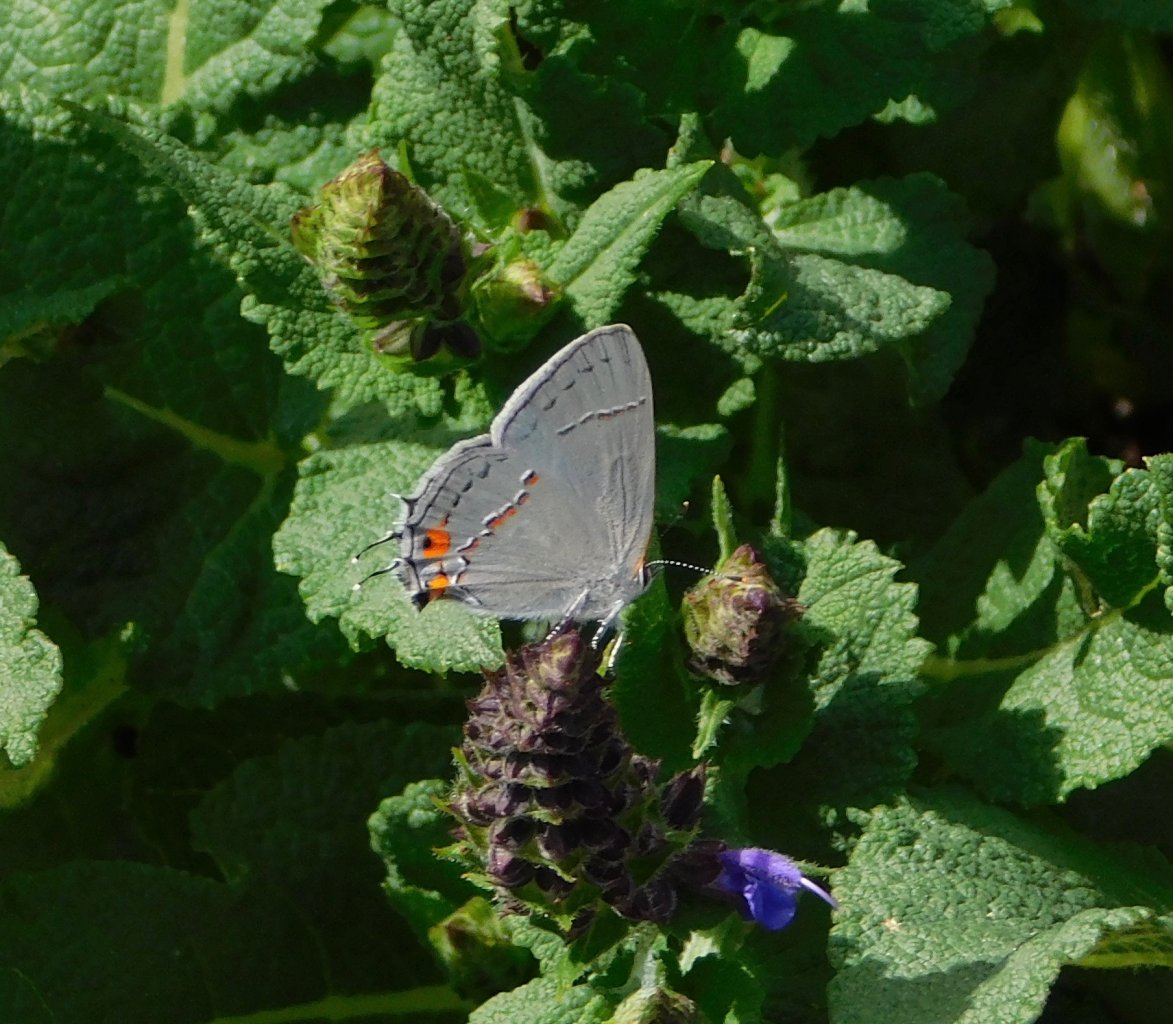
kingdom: Animalia
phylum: Arthropoda
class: Insecta
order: Lepidoptera
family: Lycaenidae
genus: Strymon
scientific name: Strymon melinus
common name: Gray Hairstreak
